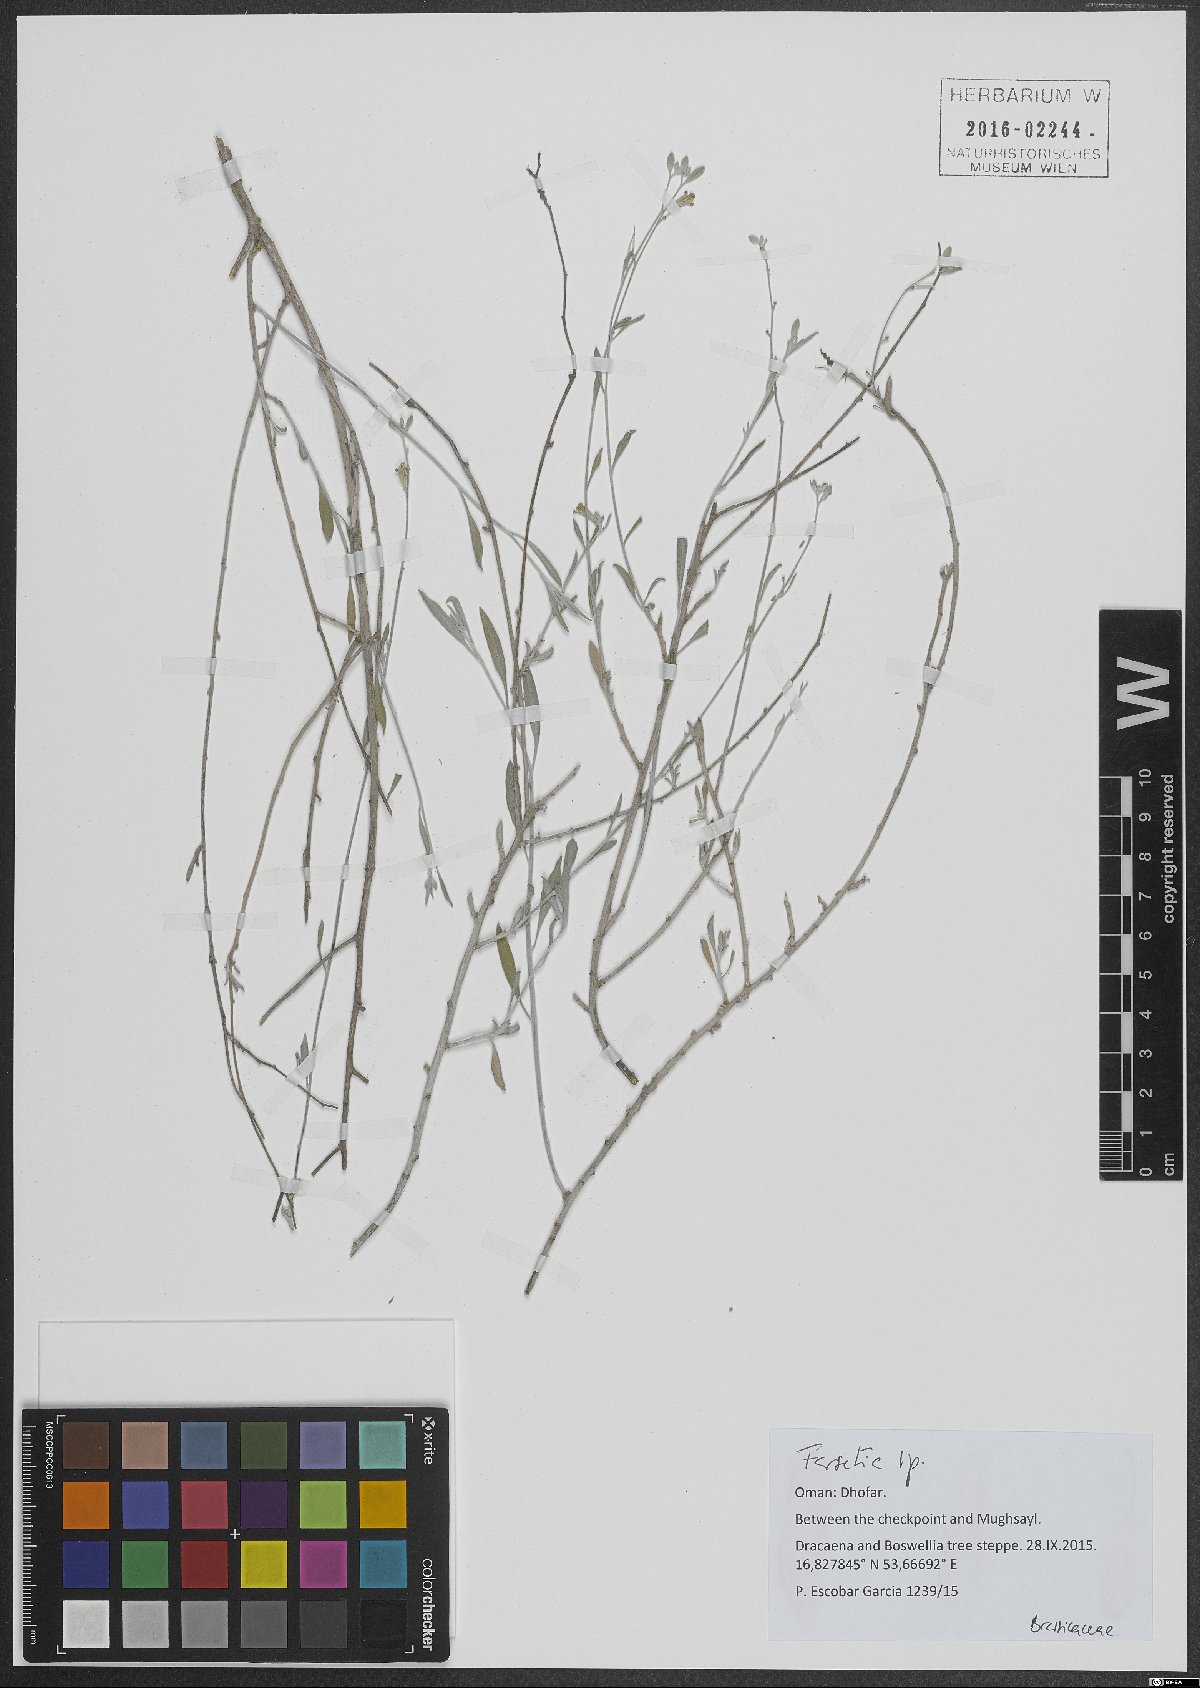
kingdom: Plantae
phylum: Tracheophyta
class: Magnoliopsida
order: Brassicales
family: Brassicaceae
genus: Farsetia
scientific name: Farsetia
